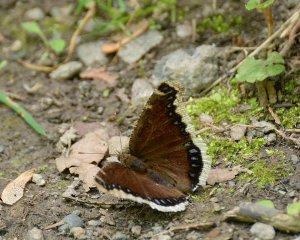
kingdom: Animalia
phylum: Arthropoda
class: Insecta
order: Lepidoptera
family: Nymphalidae
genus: Nymphalis
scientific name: Nymphalis antiopa
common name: Mourning Cloak
